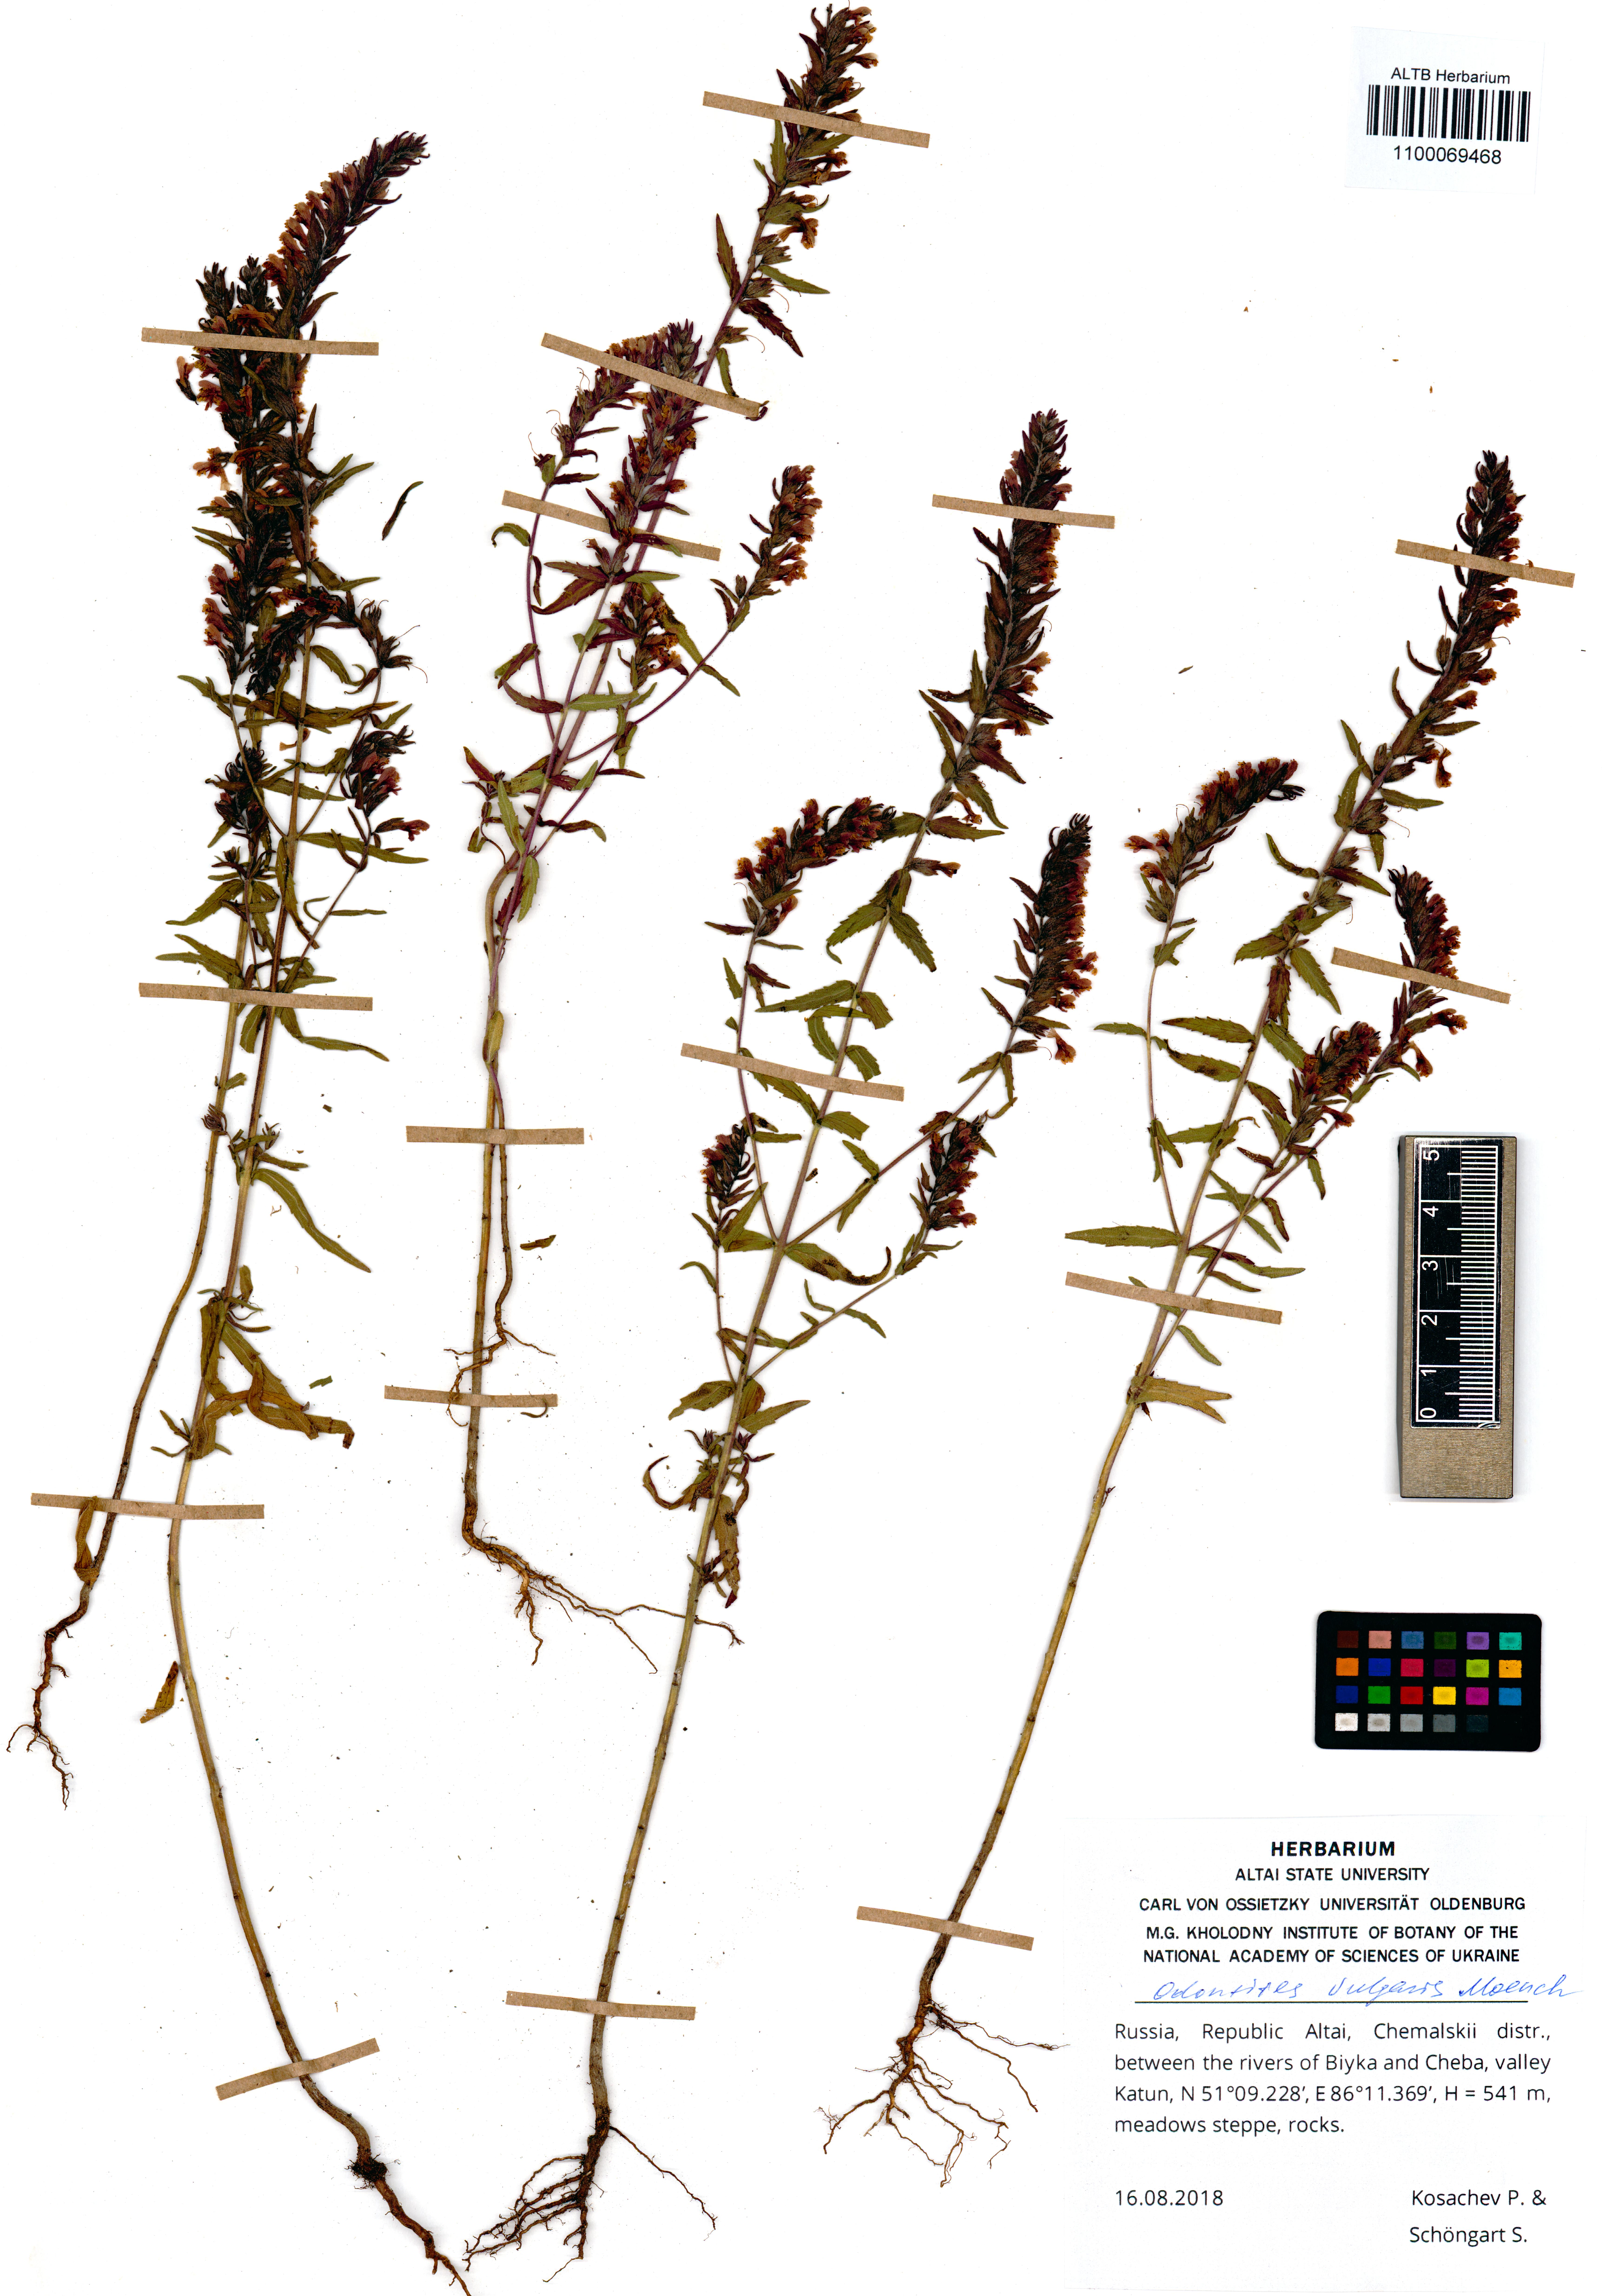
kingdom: Plantae
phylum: Tracheophyta
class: Magnoliopsida
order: Lamiales
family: Orobanchaceae
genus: Odontites
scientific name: Odontites vulgaris
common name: Broomrape
